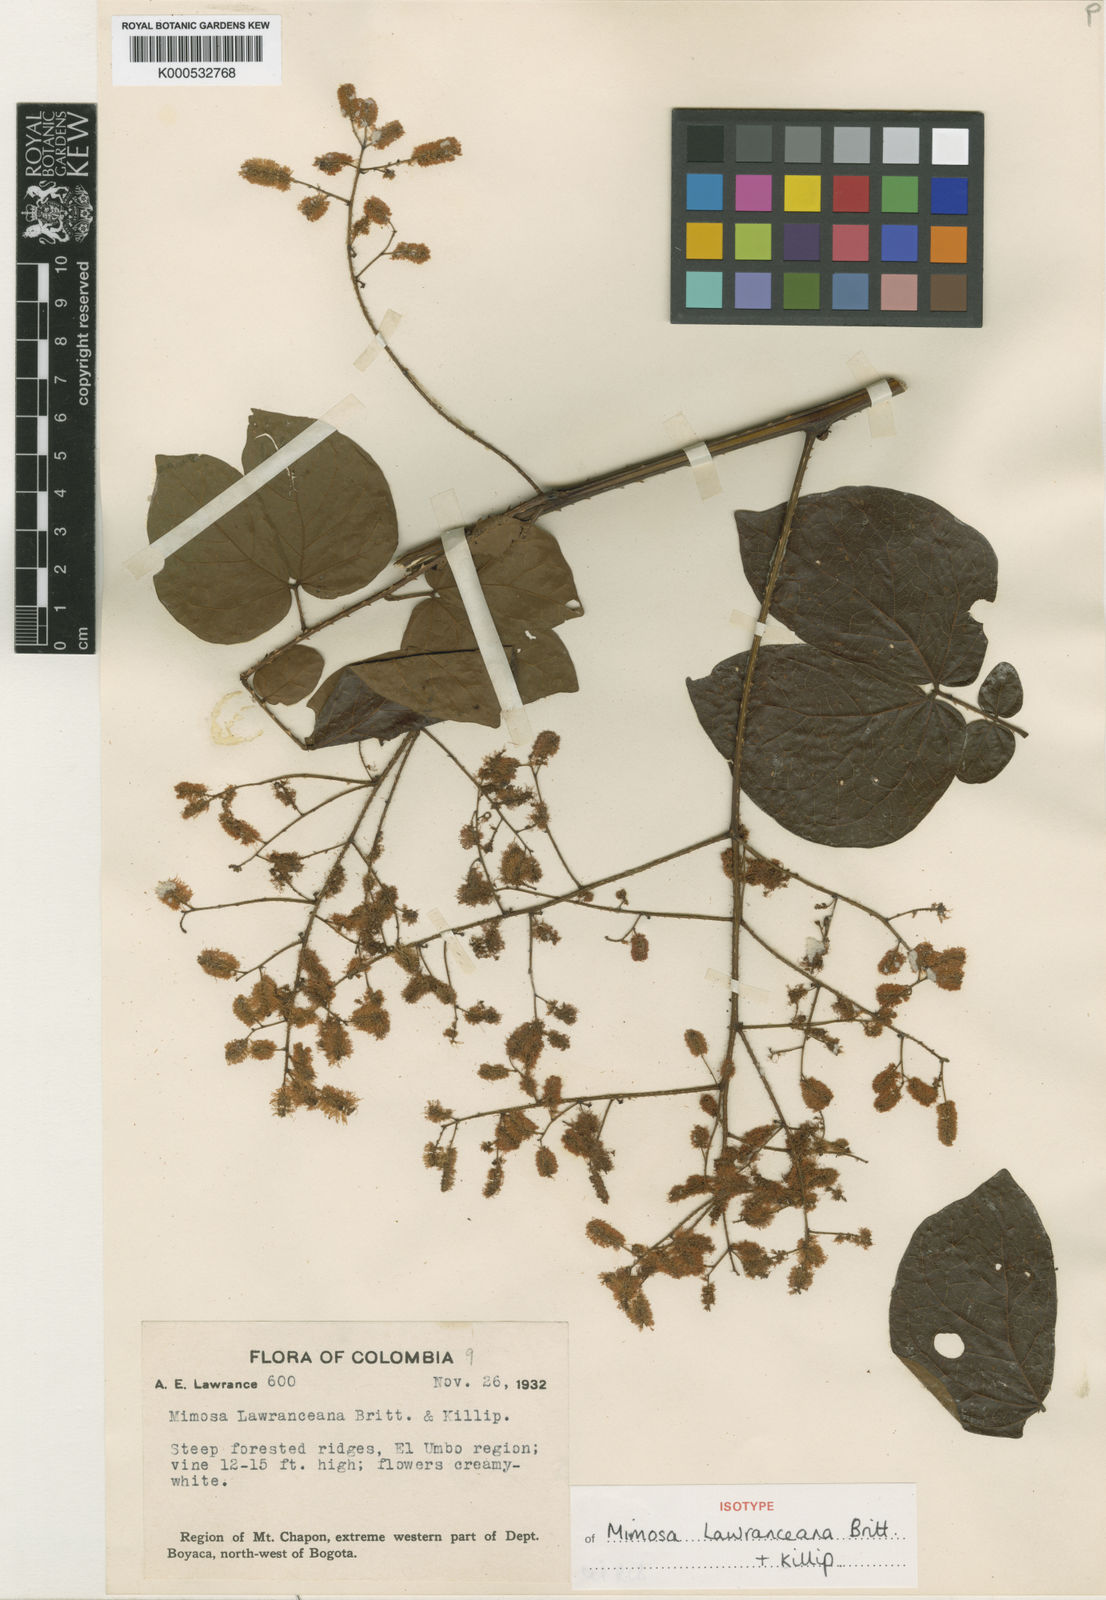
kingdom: Plantae
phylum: Tracheophyta
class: Magnoliopsida
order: Fabales
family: Fabaceae
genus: Mimosa
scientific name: Mimosa lawranceana
